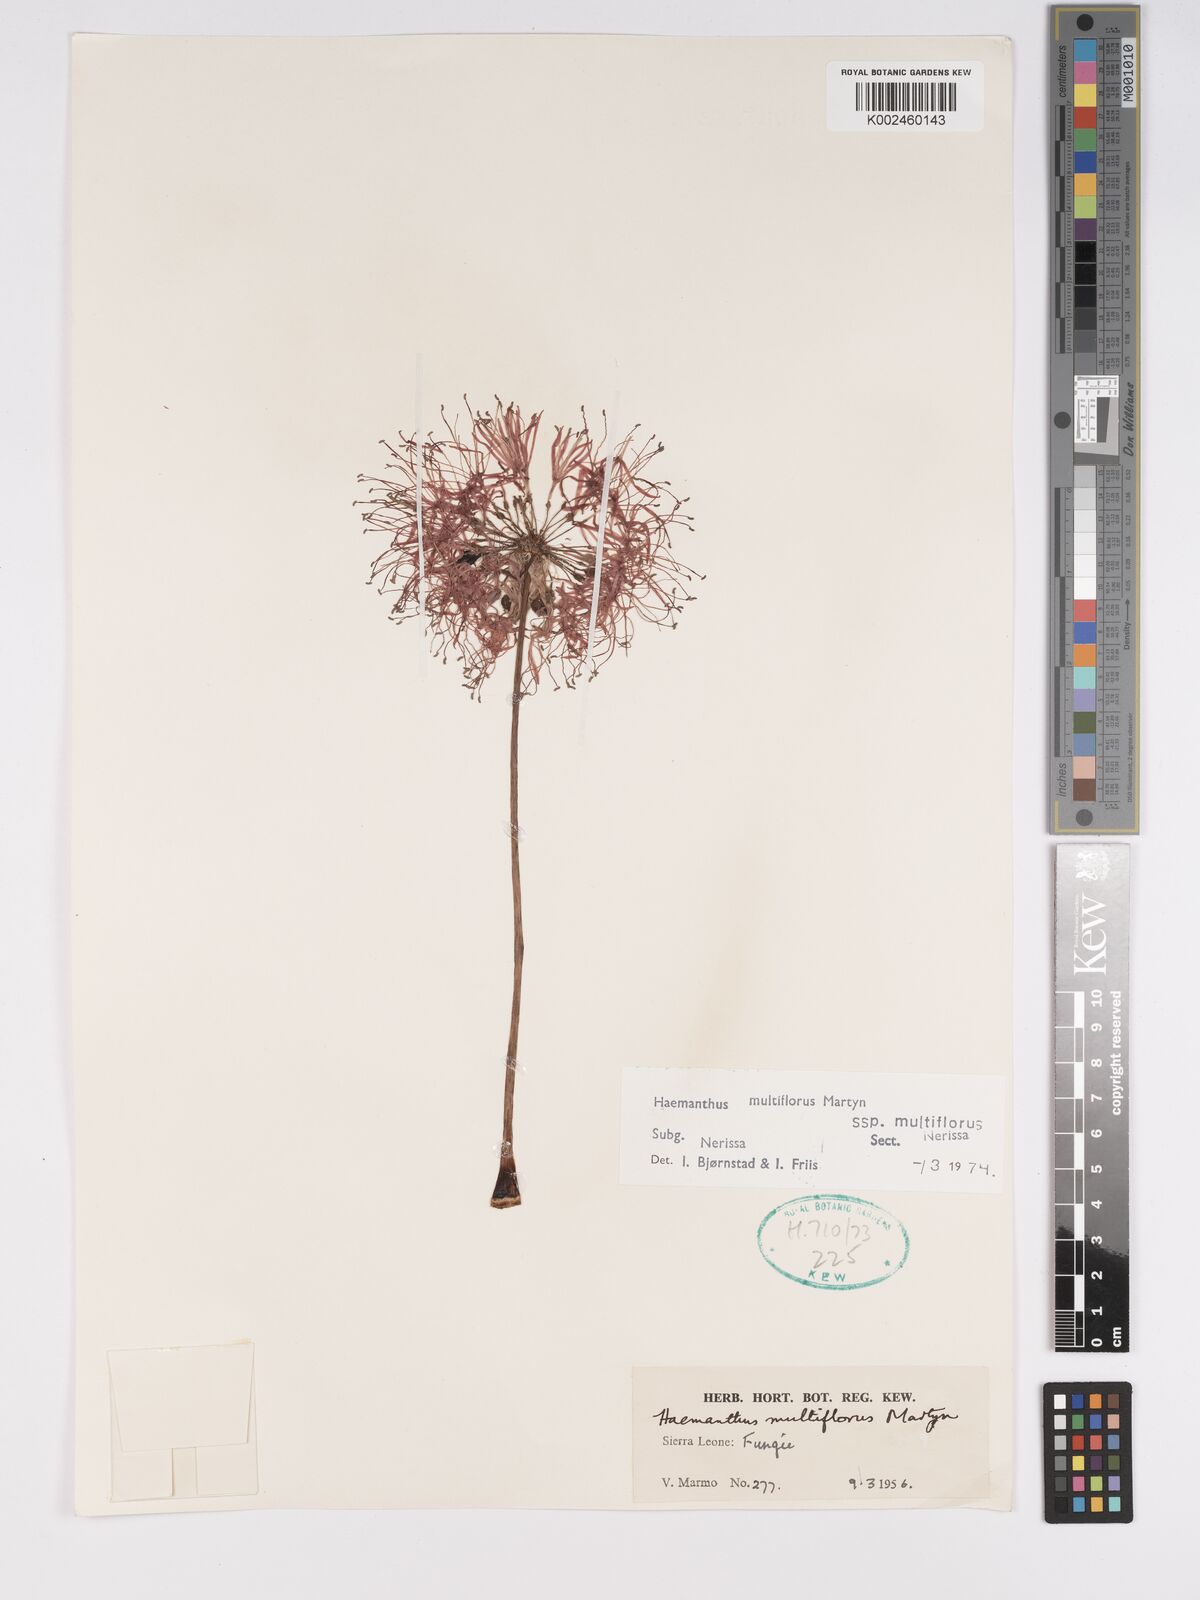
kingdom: Plantae
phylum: Tracheophyta
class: Liliopsida
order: Asparagales
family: Amaryllidaceae
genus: Scadoxus
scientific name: Scadoxus multiflorus
